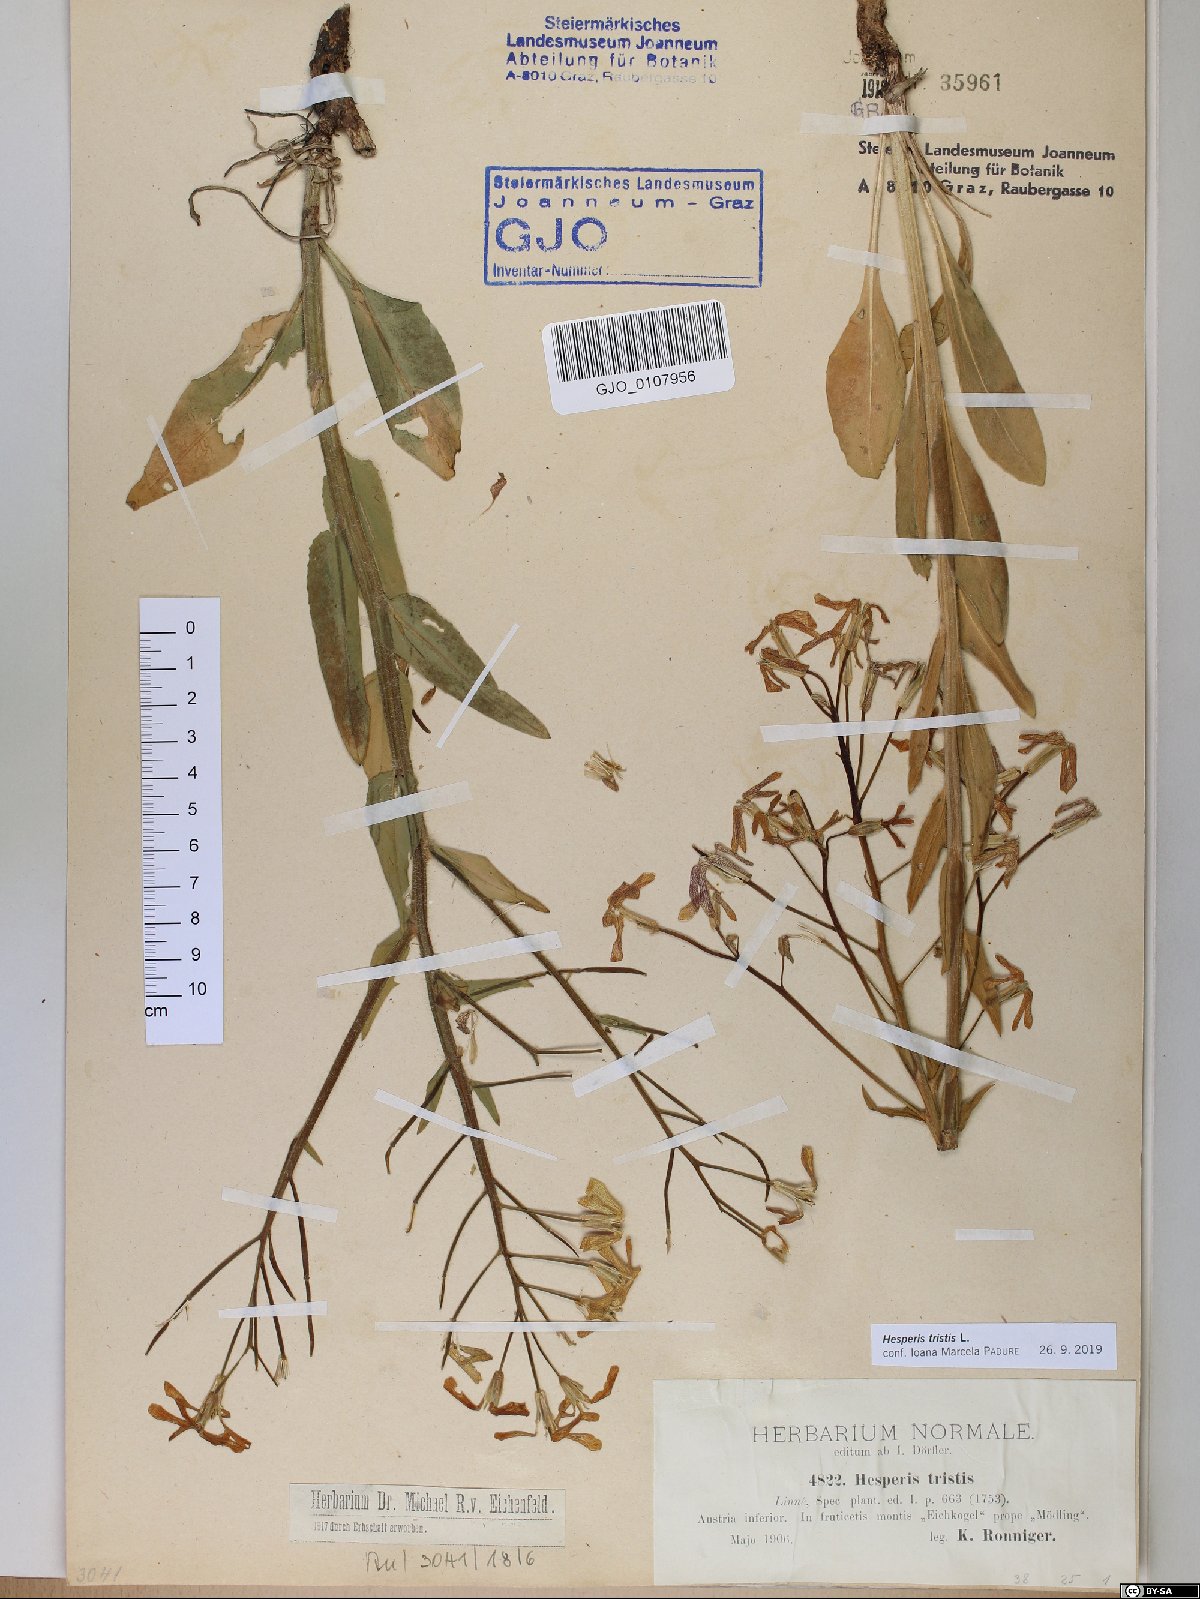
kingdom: Plantae
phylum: Tracheophyta
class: Magnoliopsida
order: Brassicales
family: Brassicaceae
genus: Hesperis
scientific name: Hesperis tristis
